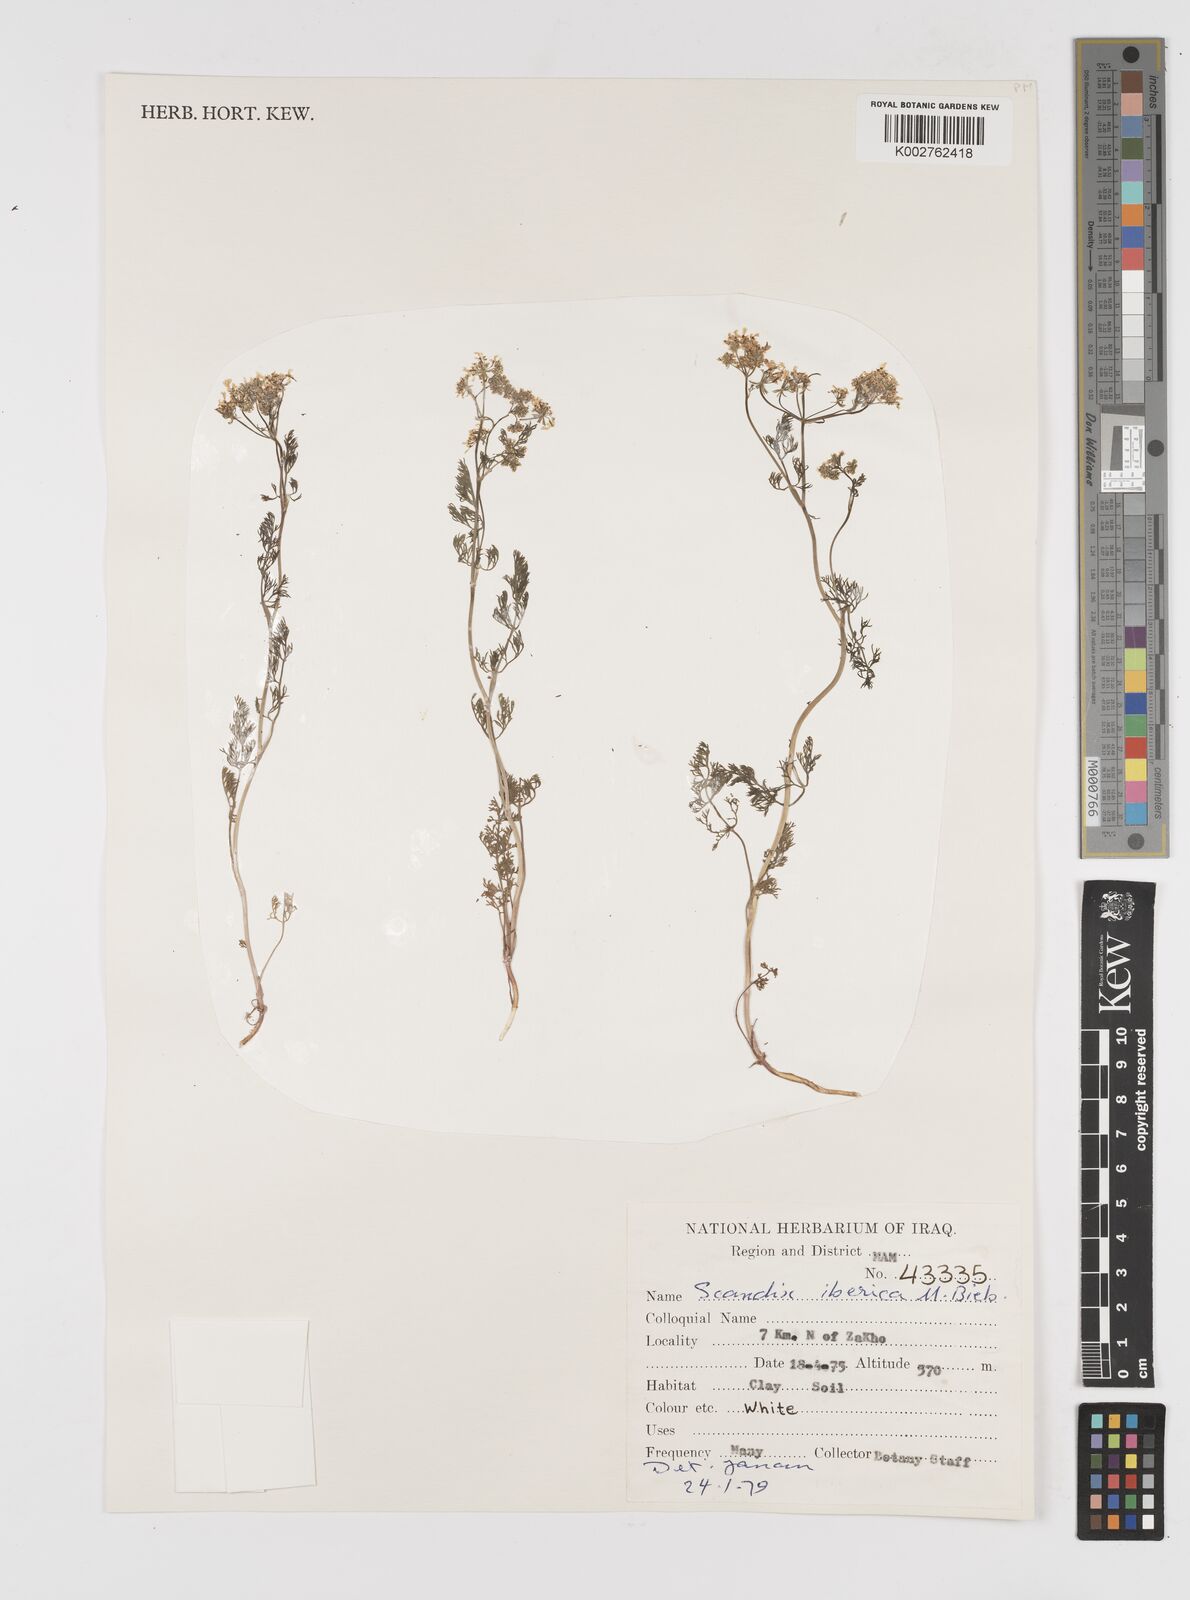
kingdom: Plantae
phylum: Tracheophyta
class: Magnoliopsida
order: Apiales
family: Apiaceae
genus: Scandix
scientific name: Scandix iberica
